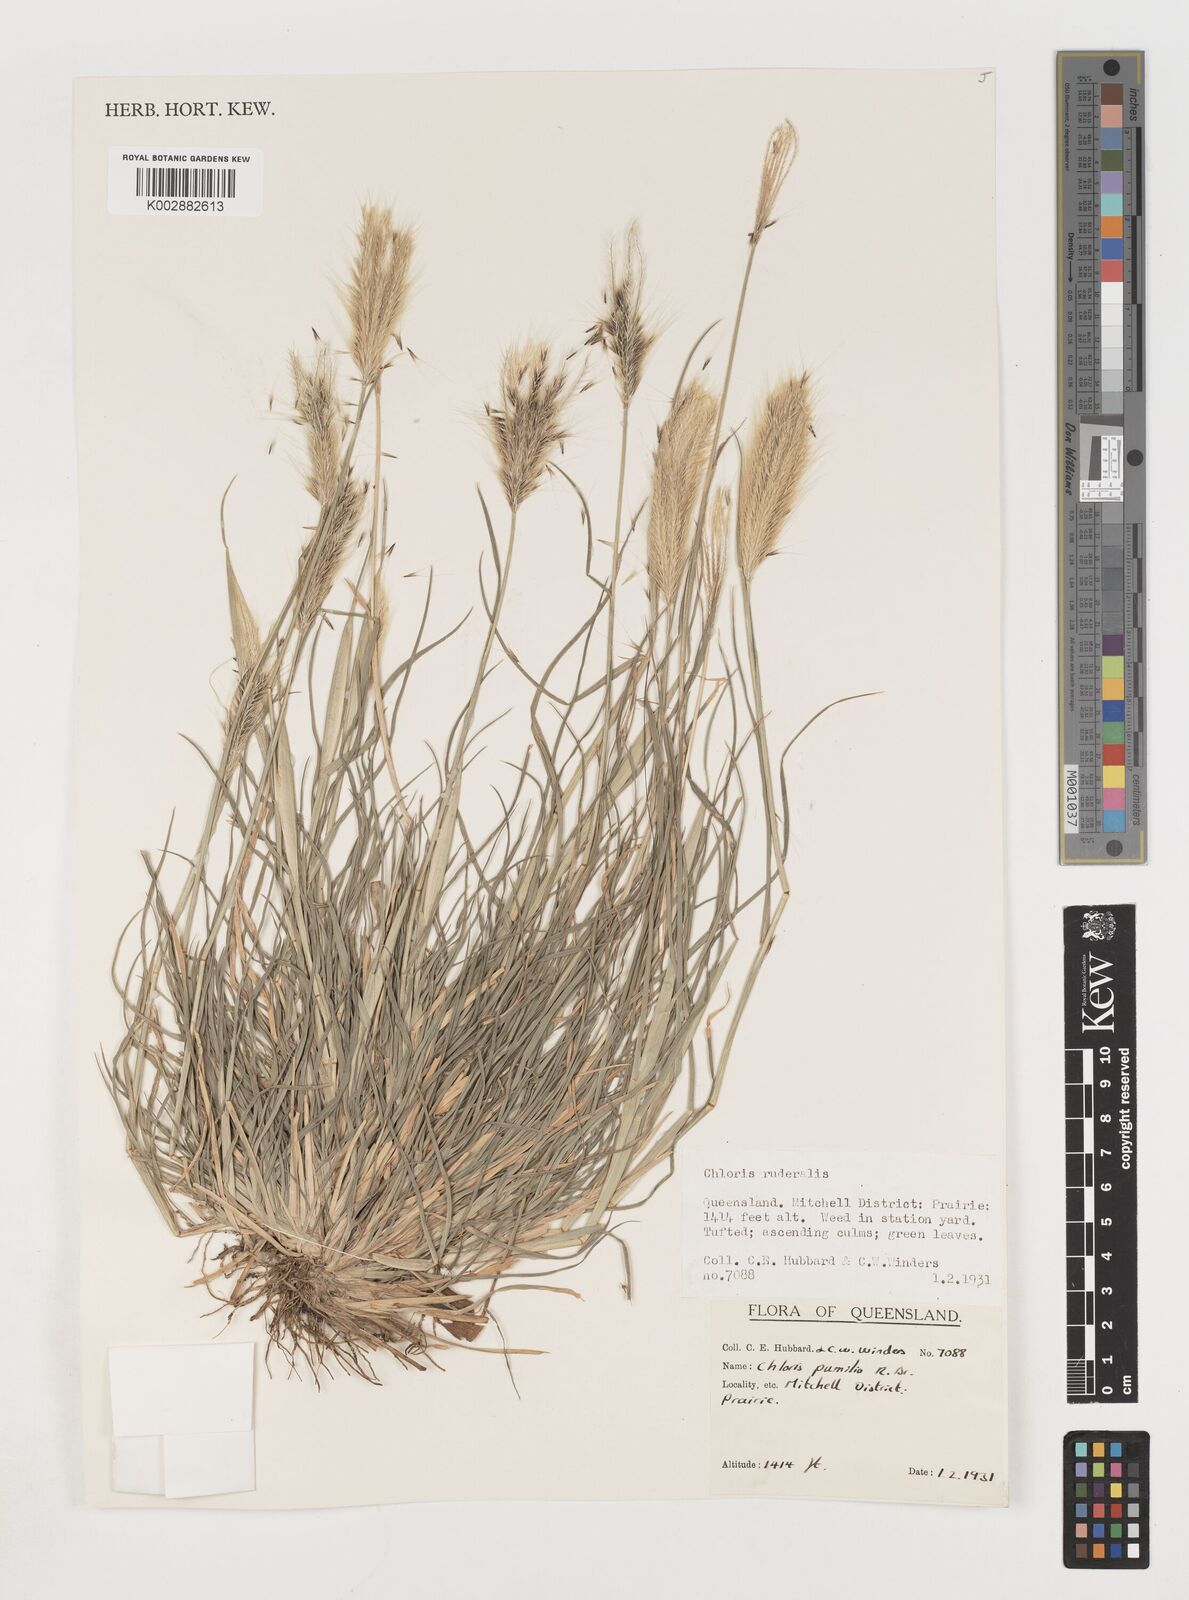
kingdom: Plantae
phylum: Tracheophyta
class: Liliopsida
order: Poales
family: Poaceae
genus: Chloris
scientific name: Chloris pumilio
